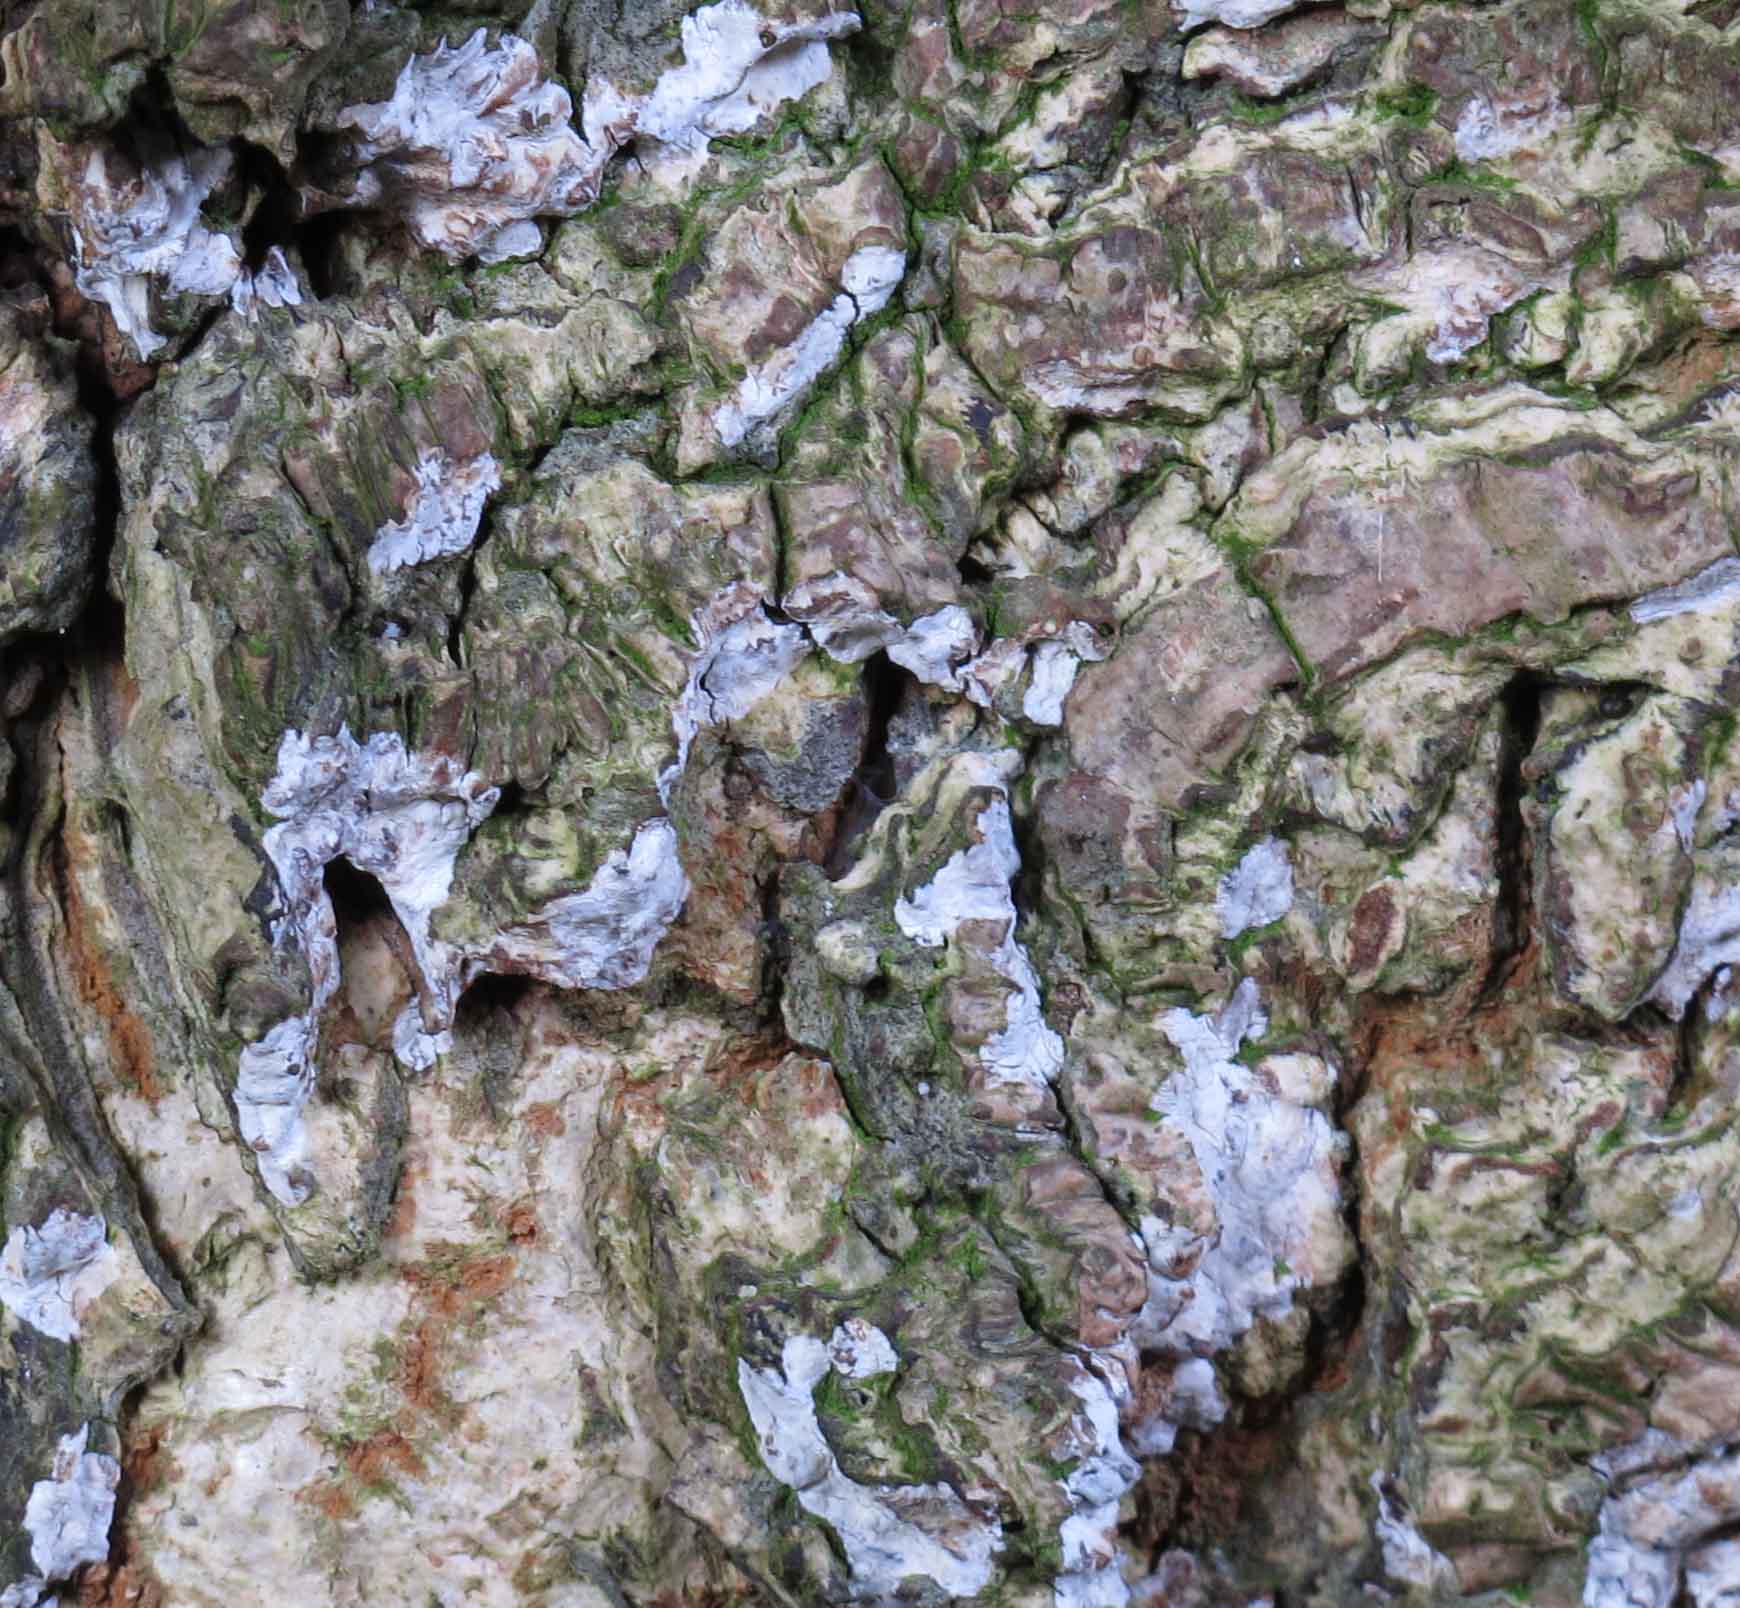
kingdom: Fungi
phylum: Basidiomycota
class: Agaricomycetes
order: Agaricales
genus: Dendrothele
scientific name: Dendrothele acerina
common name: navr-kalkplet
